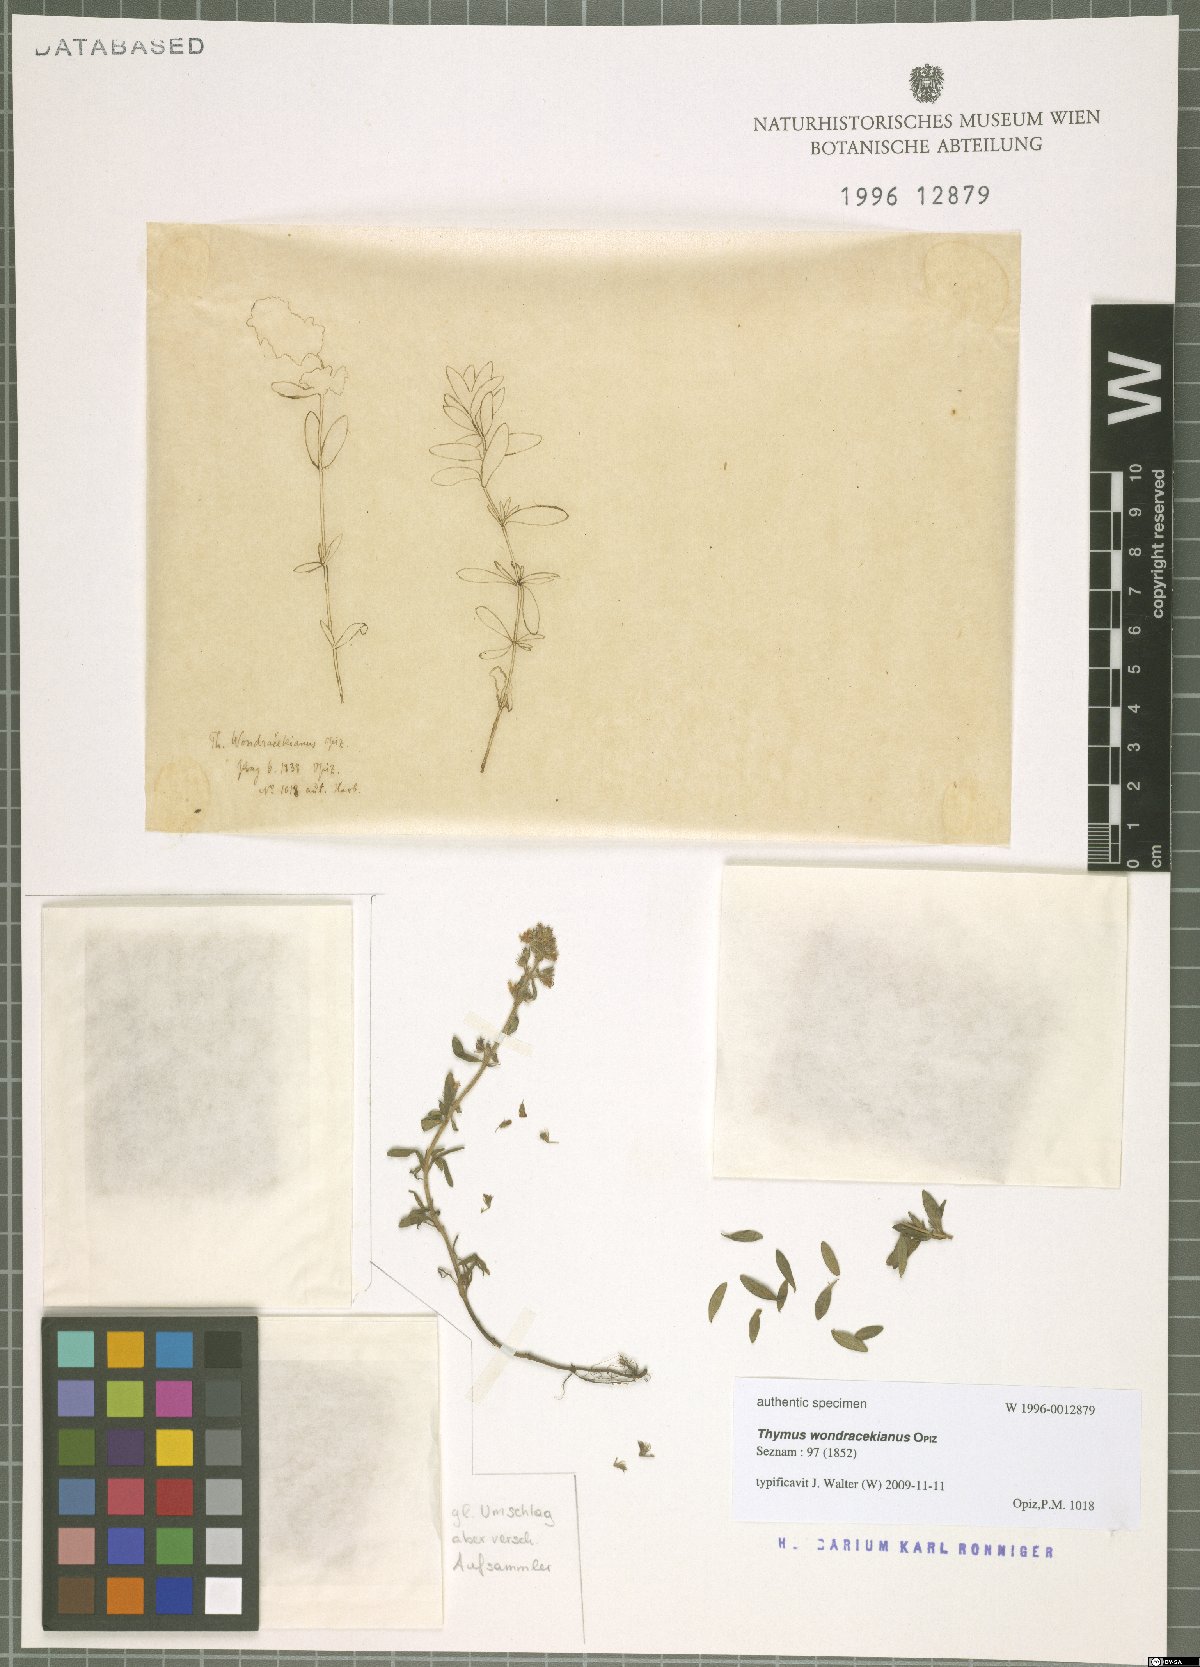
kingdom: Plantae
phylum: Tracheophyta
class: Magnoliopsida
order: Lamiales
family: Lamiaceae
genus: Thymus
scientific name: Thymus serpyllum
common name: Breckland thyme
